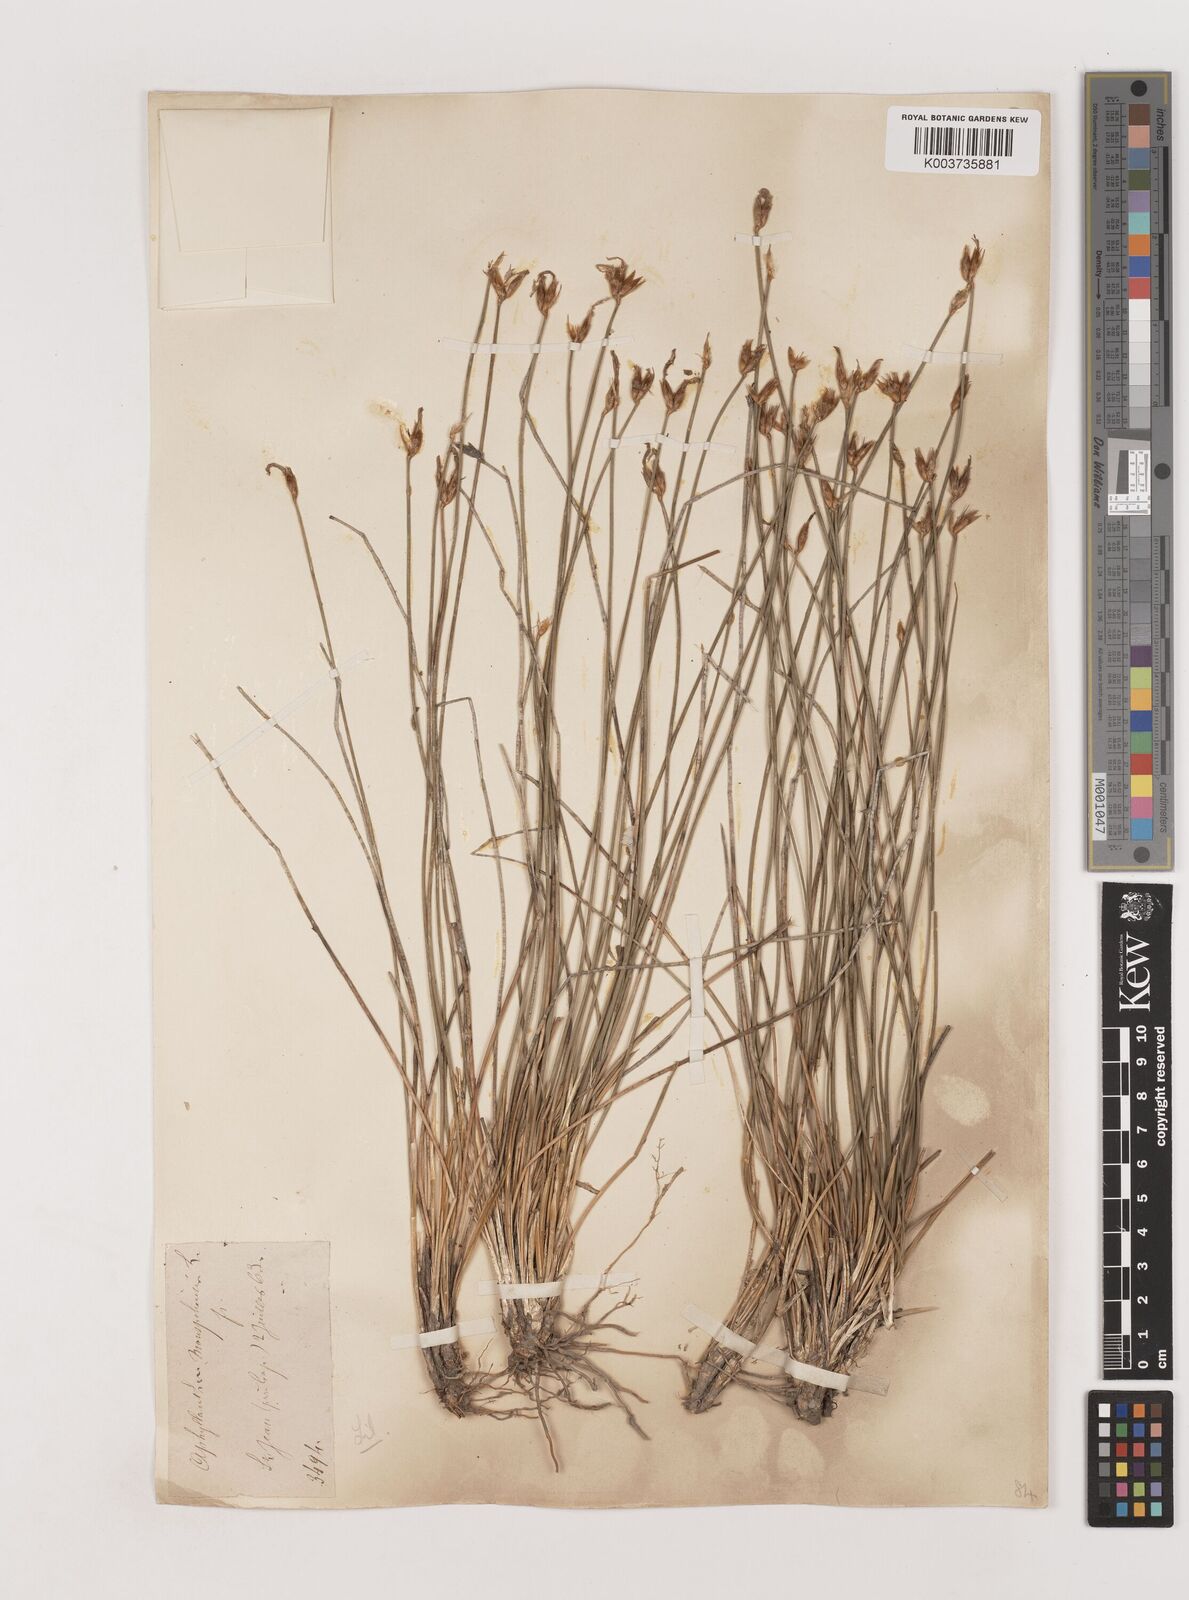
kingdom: Plantae
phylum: Tracheophyta
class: Liliopsida
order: Asparagales
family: Asparagaceae
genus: Aphyllanthes
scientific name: Aphyllanthes monspeliensis
